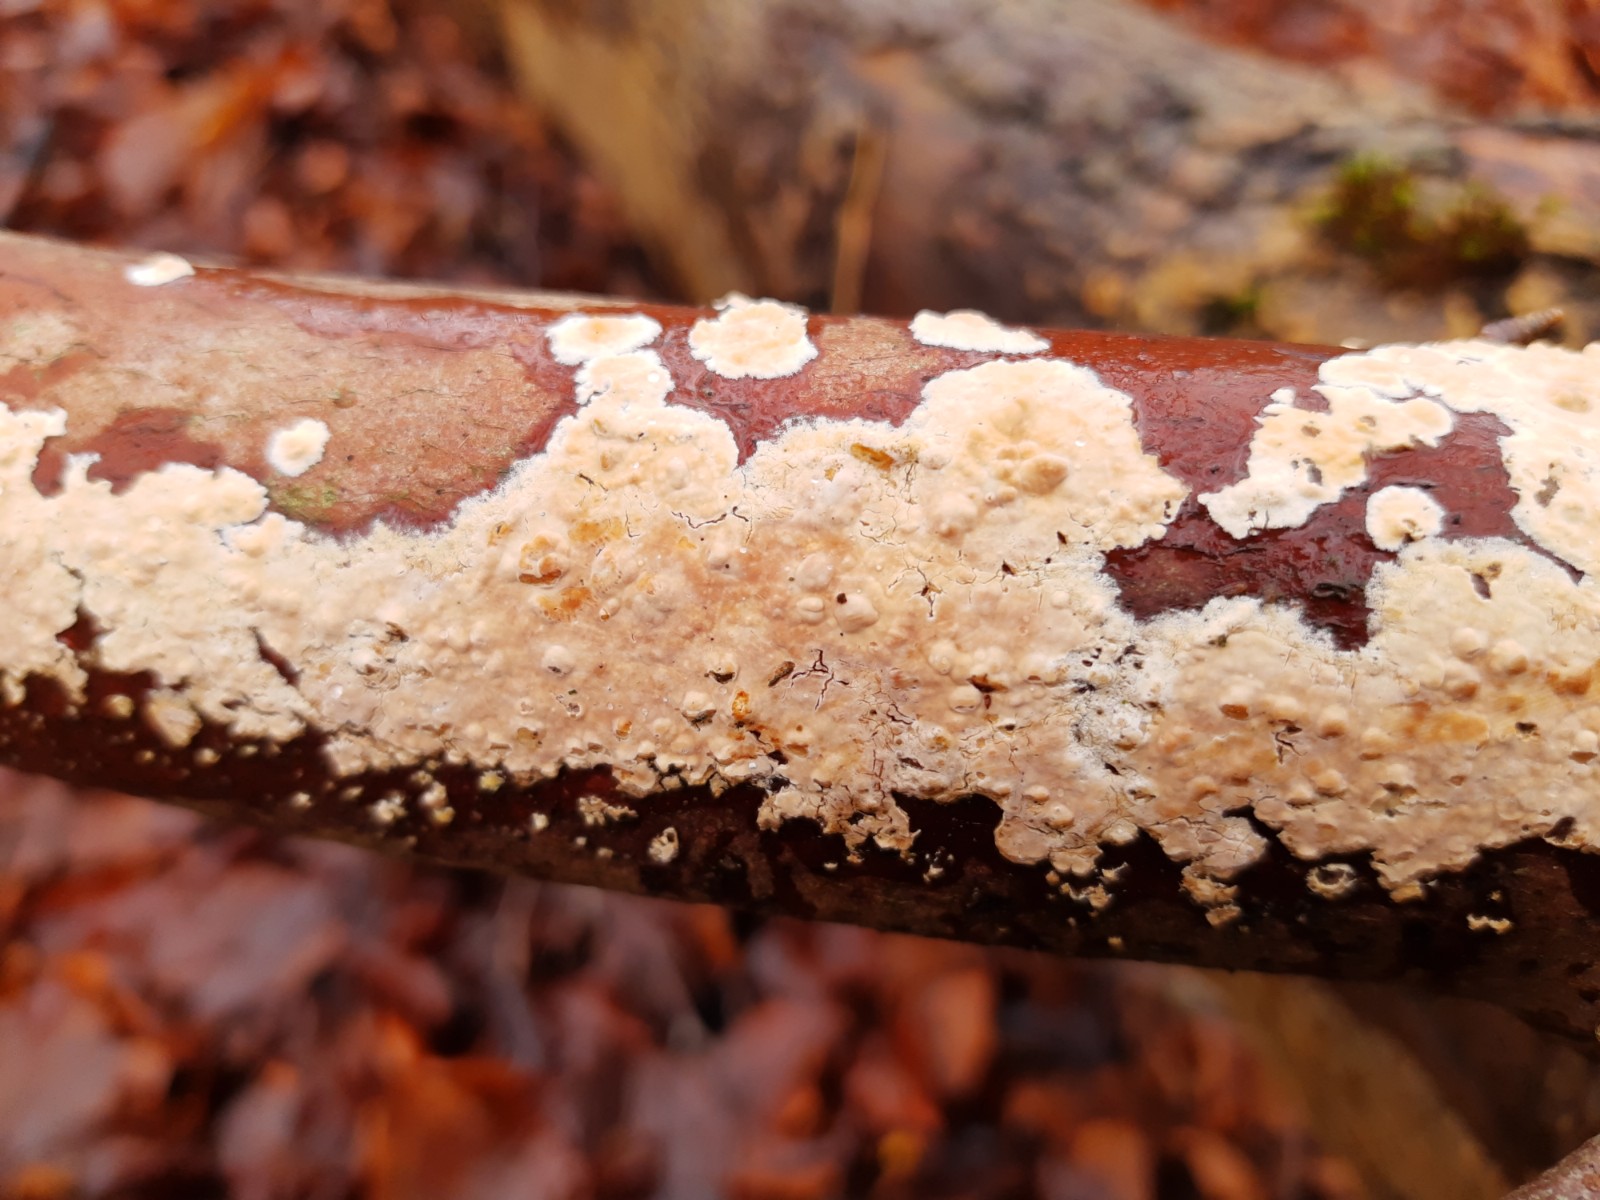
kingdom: Fungi
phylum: Basidiomycota
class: Agaricomycetes
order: Agaricales
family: Physalacriaceae
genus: Cylindrobasidium
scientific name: Cylindrobasidium evolvens
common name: sprækkehinde
